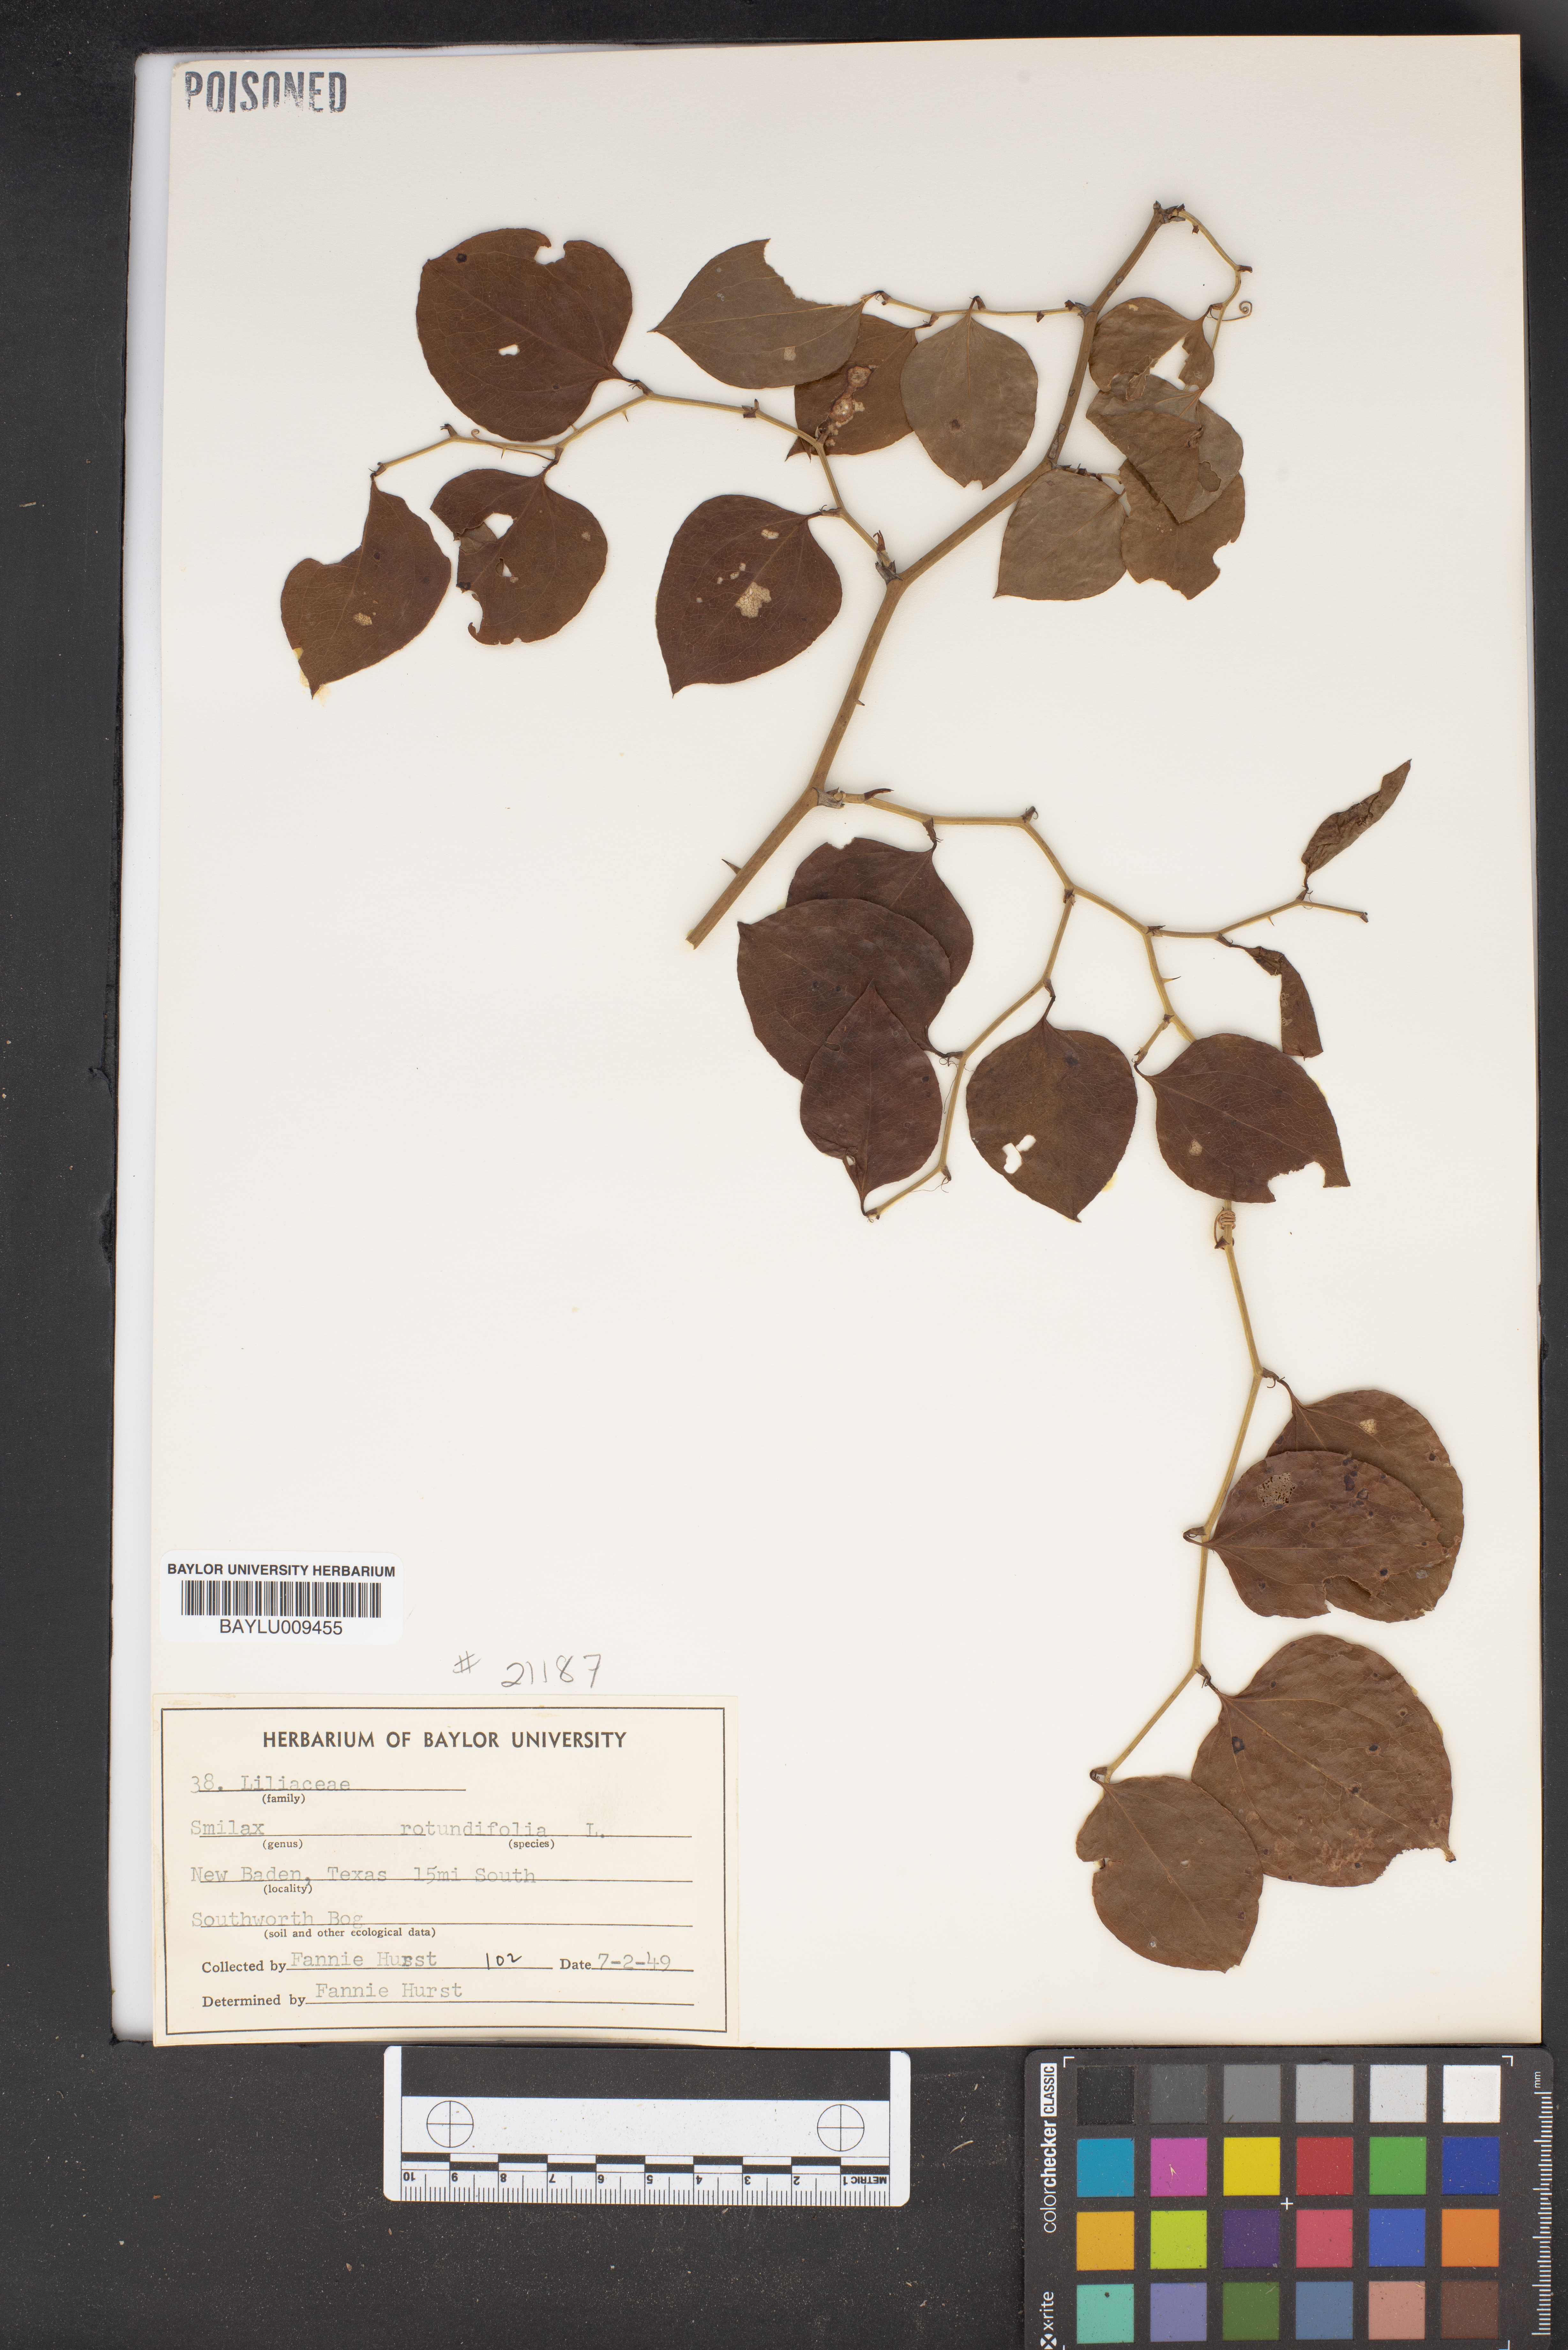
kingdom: Plantae
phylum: Tracheophyta
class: Liliopsida
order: Liliales
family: Smilacaceae
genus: Smilax
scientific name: Smilax rotundifolia
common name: Bullbriar
